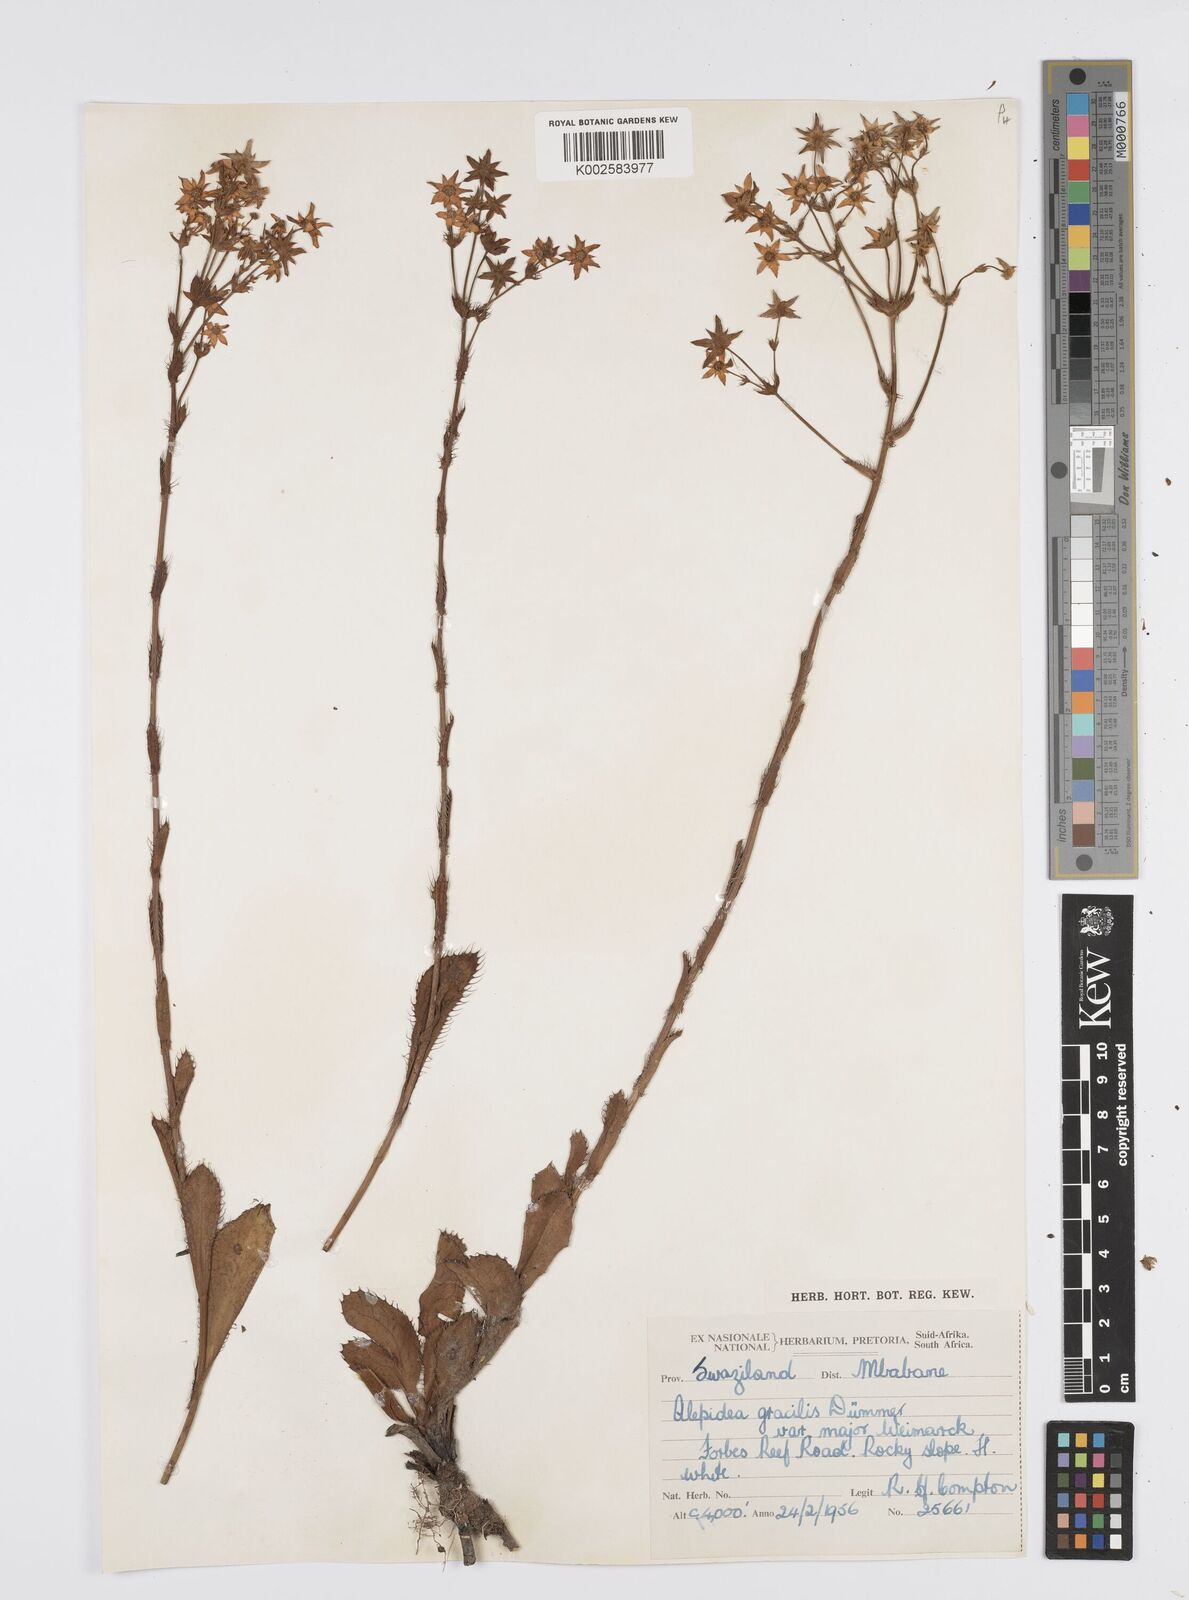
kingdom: Plantae
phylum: Tracheophyta
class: Magnoliopsida
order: Apiales
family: Apiaceae
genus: Alepidea
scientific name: Alepidea
